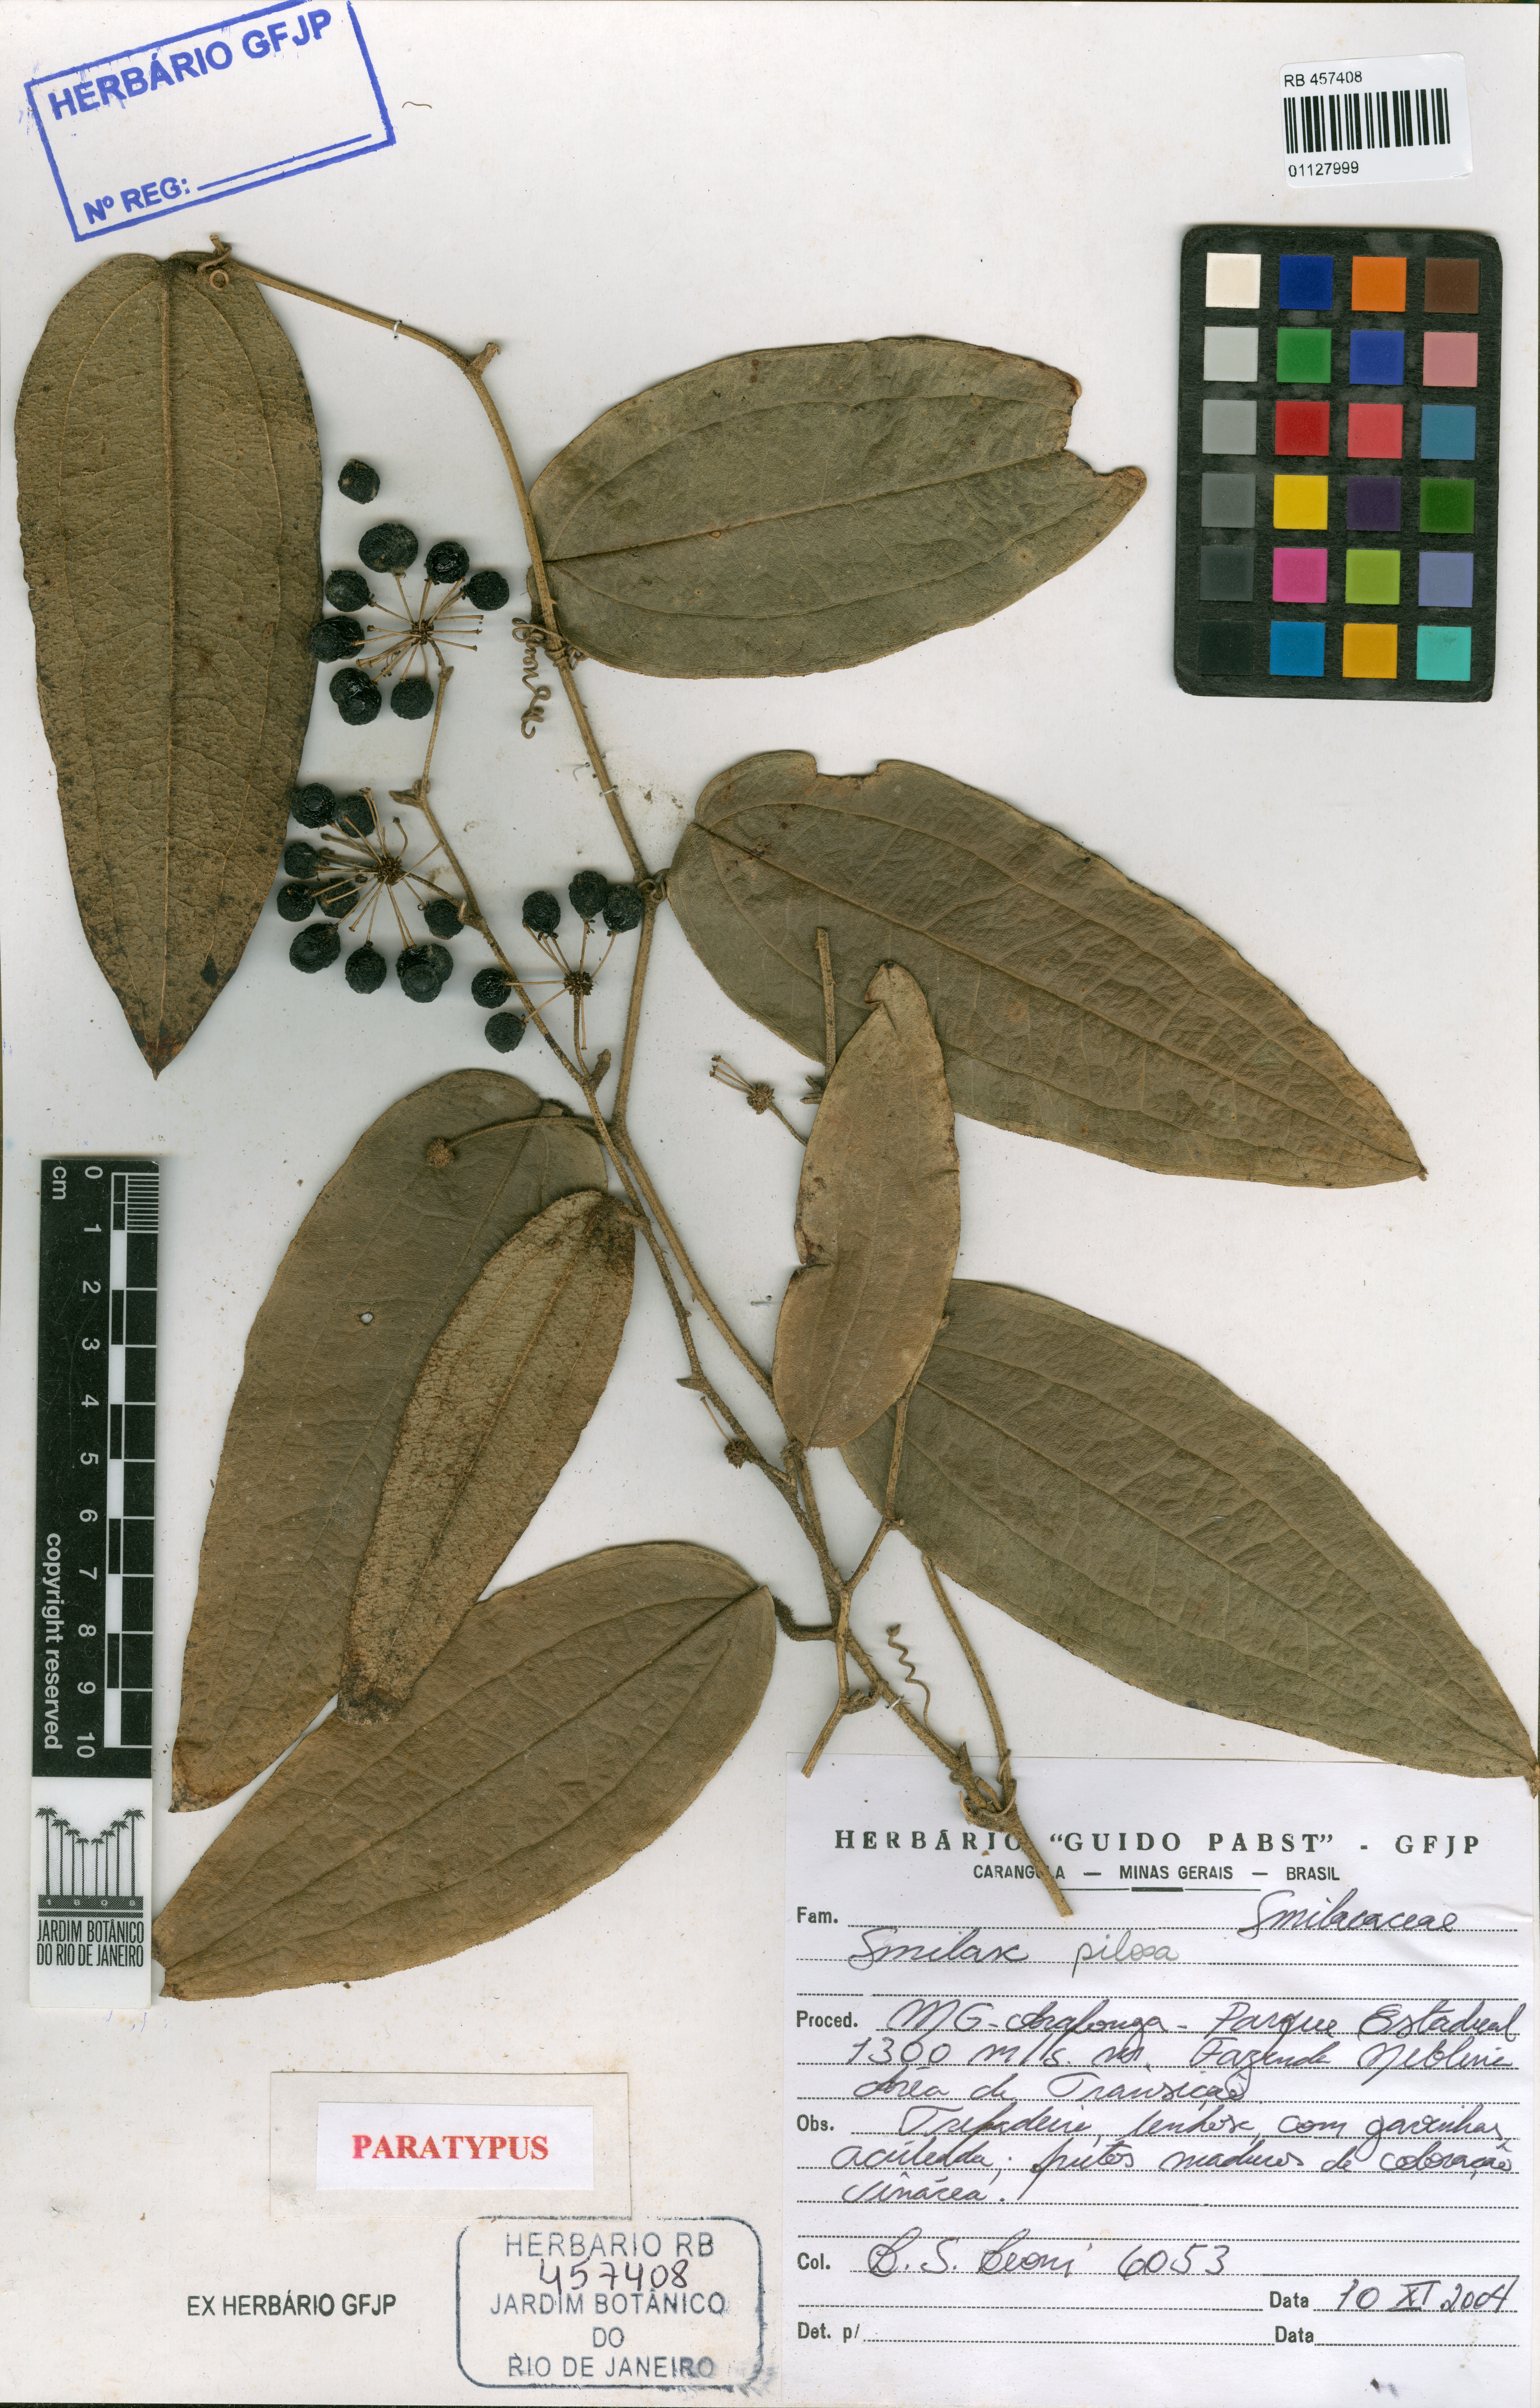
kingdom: Plantae
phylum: Tracheophyta
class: Liliopsida
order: Liliales
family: Smilacaceae
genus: Smilax
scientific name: Smilax pilosa
